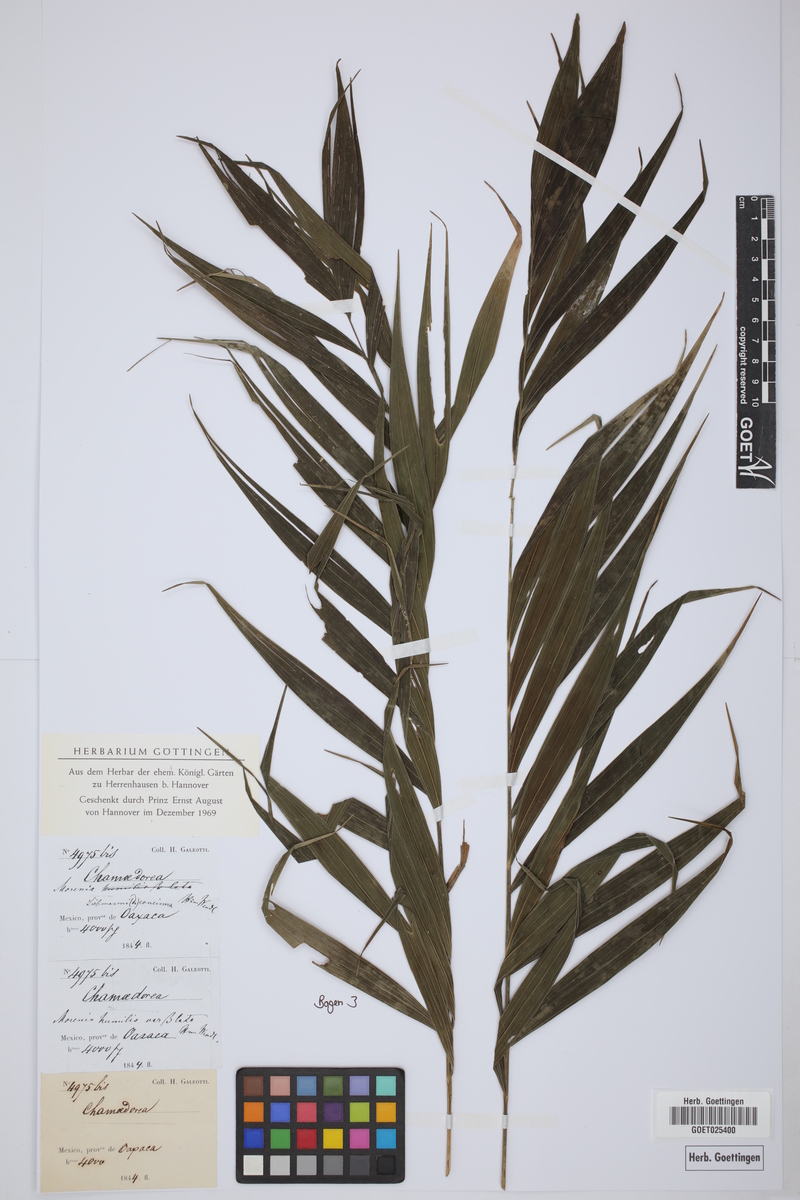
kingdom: Plantae
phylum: Tracheophyta
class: Liliopsida
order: Arecales
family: Arecaceae
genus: Chamaedorea
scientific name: Chamaedorea
